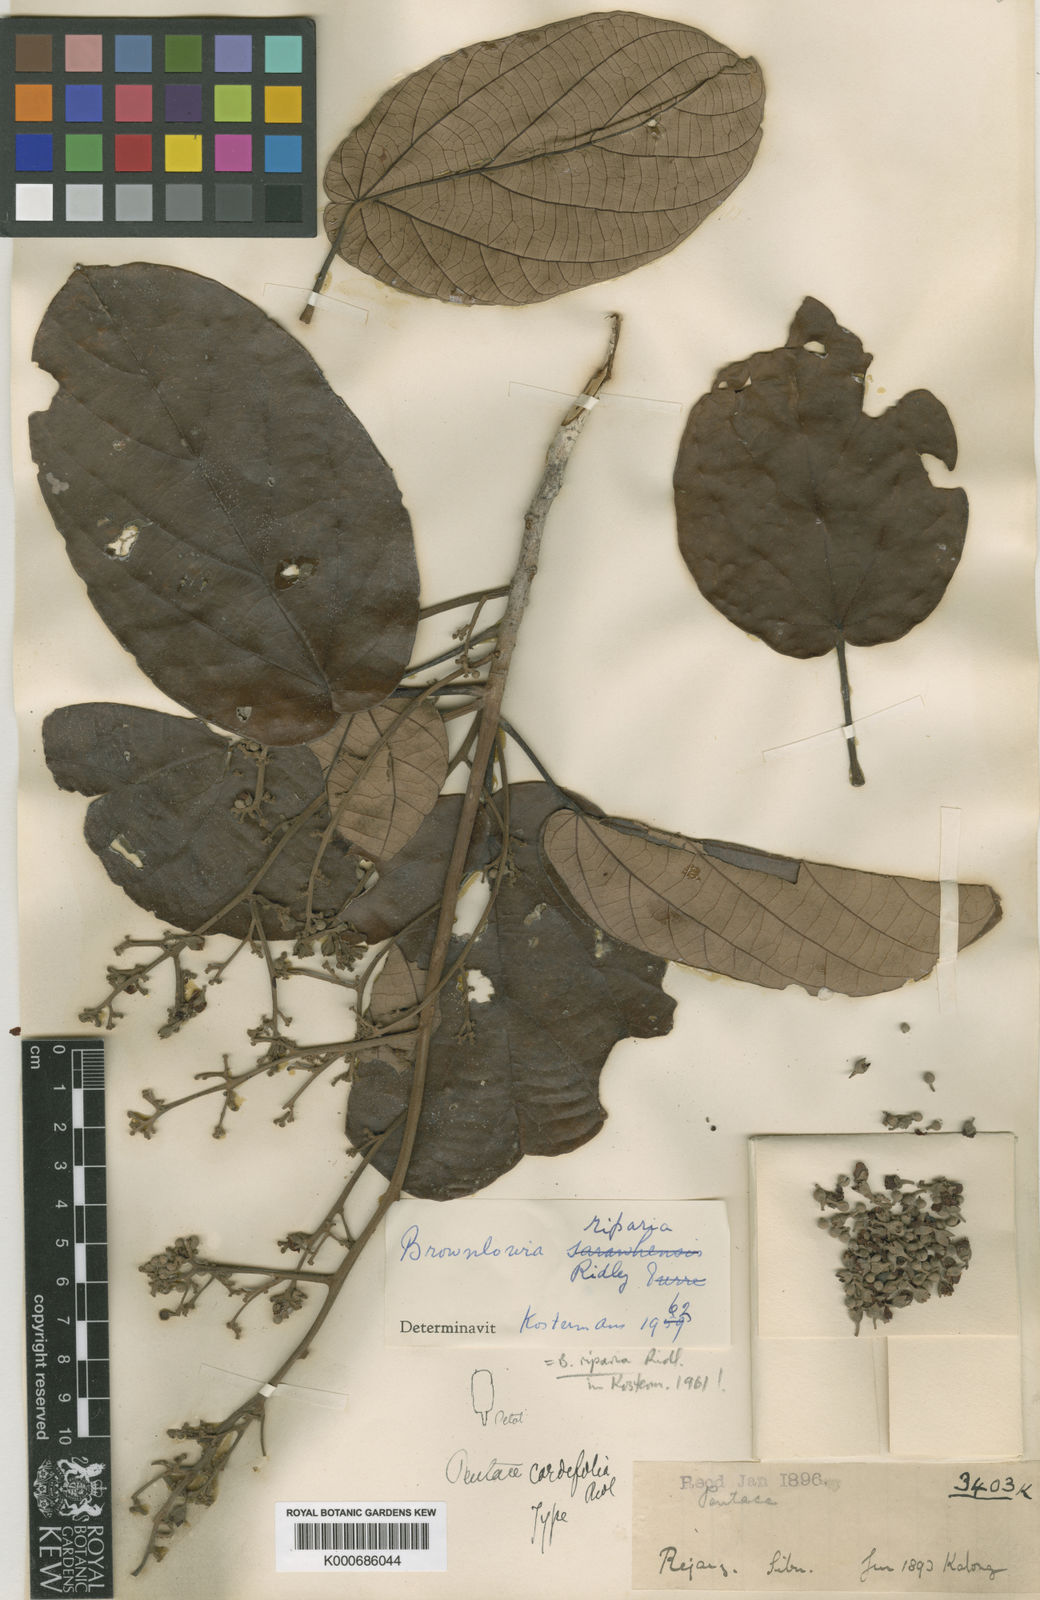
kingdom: Plantae
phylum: Tracheophyta
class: Magnoliopsida
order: Malvales
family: Malvaceae
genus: Brownlowia
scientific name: Brownlowia riparia
